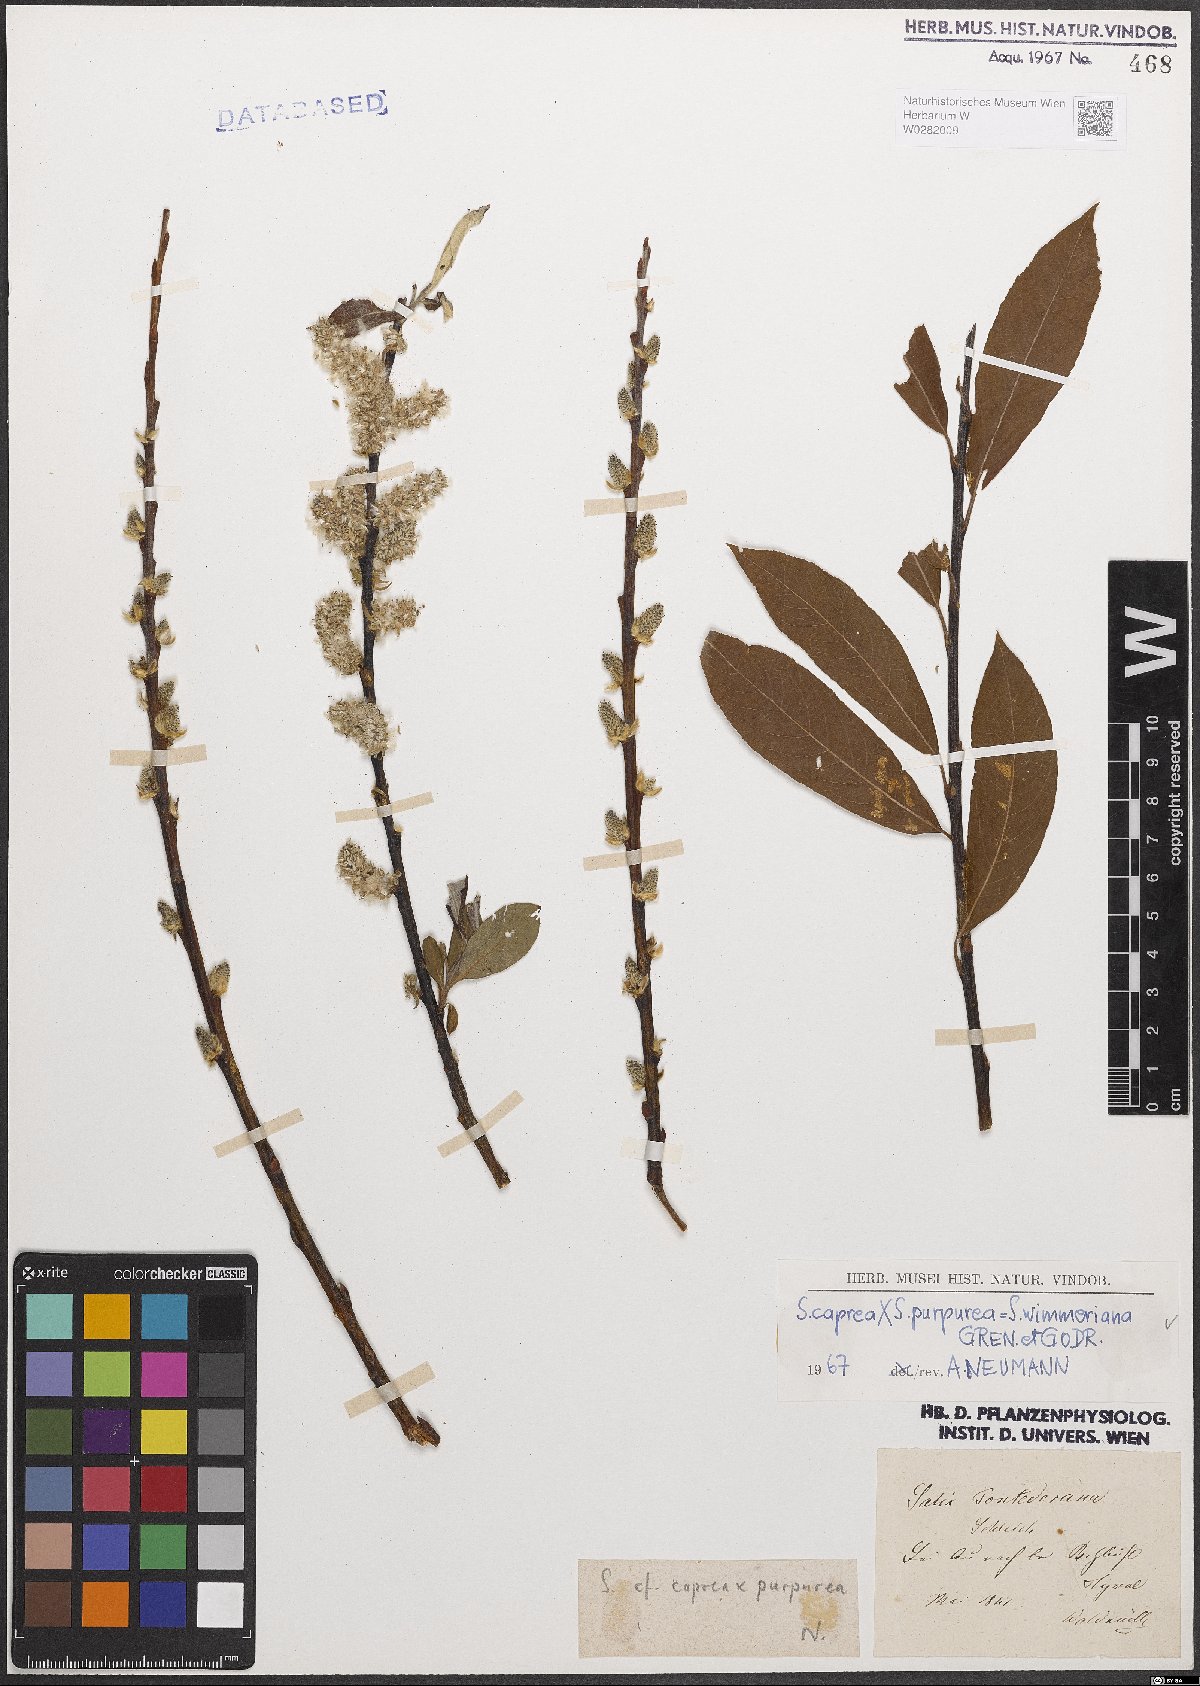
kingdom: Plantae
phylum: Tracheophyta
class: Magnoliopsida
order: Malpighiales
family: Salicaceae
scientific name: Salicaceae
